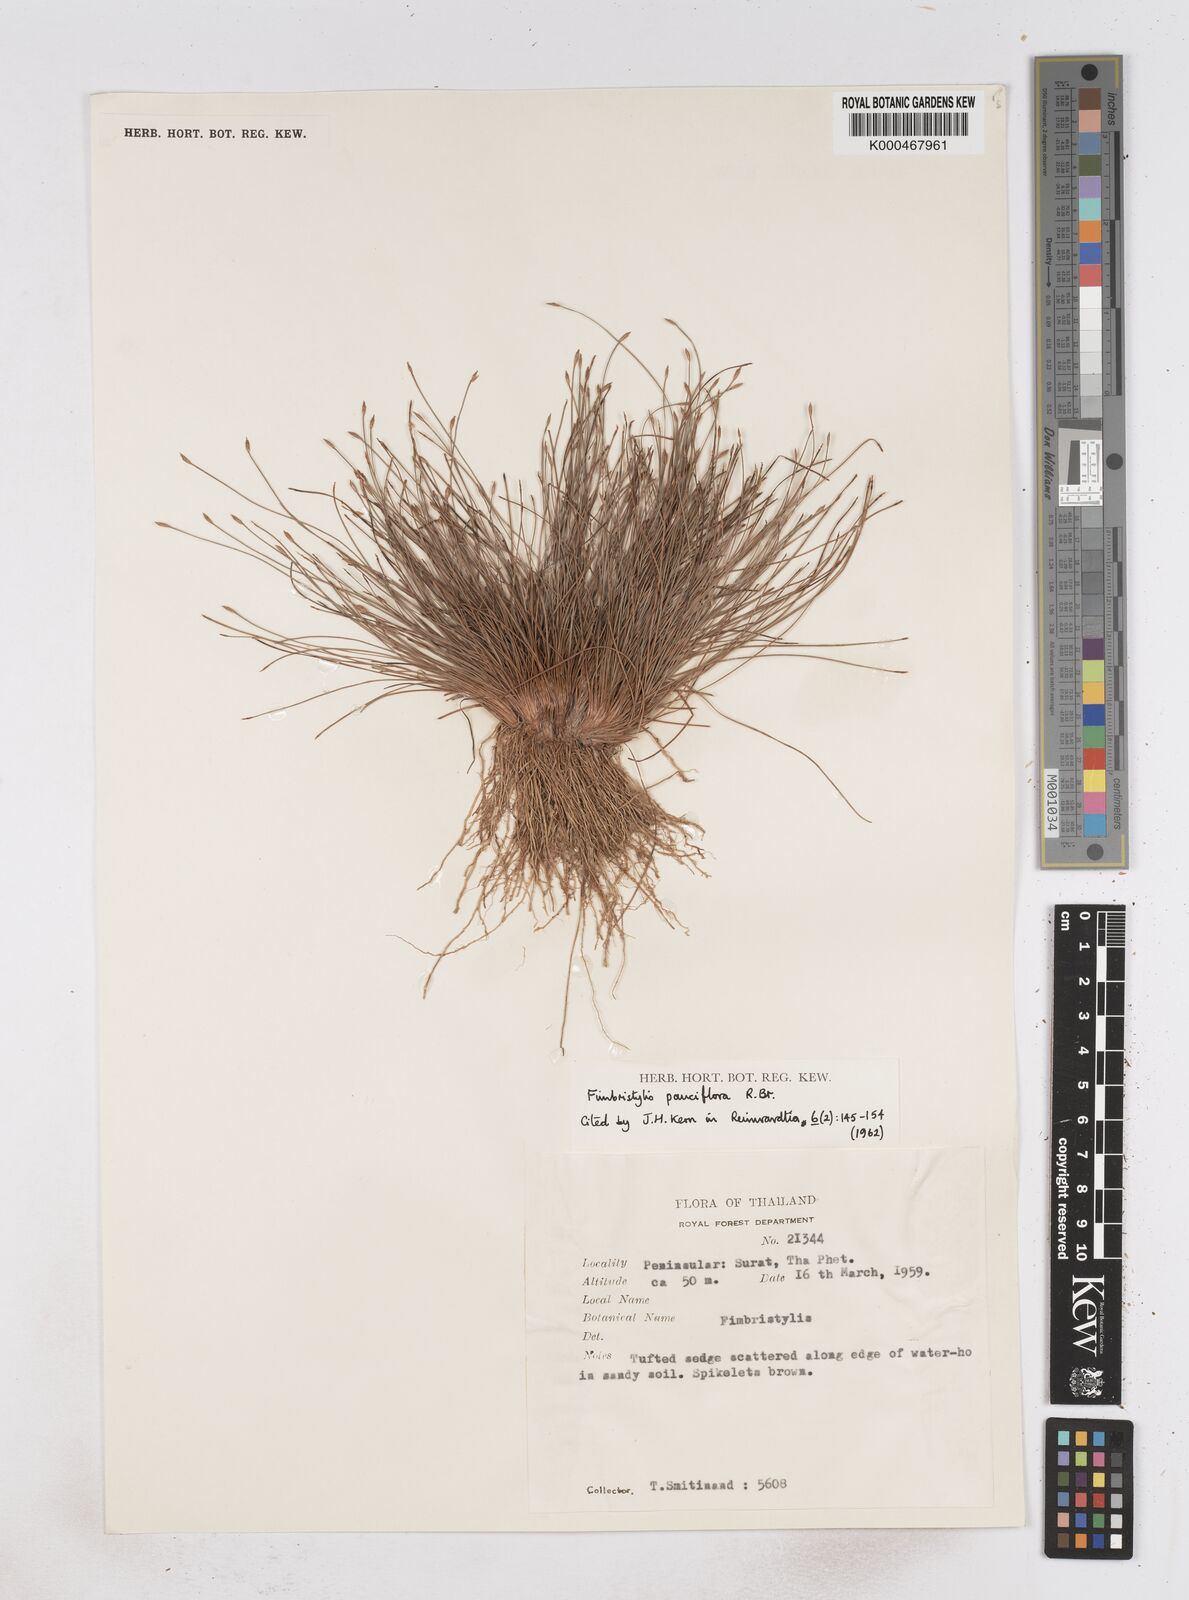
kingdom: Plantae
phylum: Tracheophyta
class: Liliopsida
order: Poales
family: Cyperaceae
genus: Fimbristylis
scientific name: Fimbristylis pauciflora
